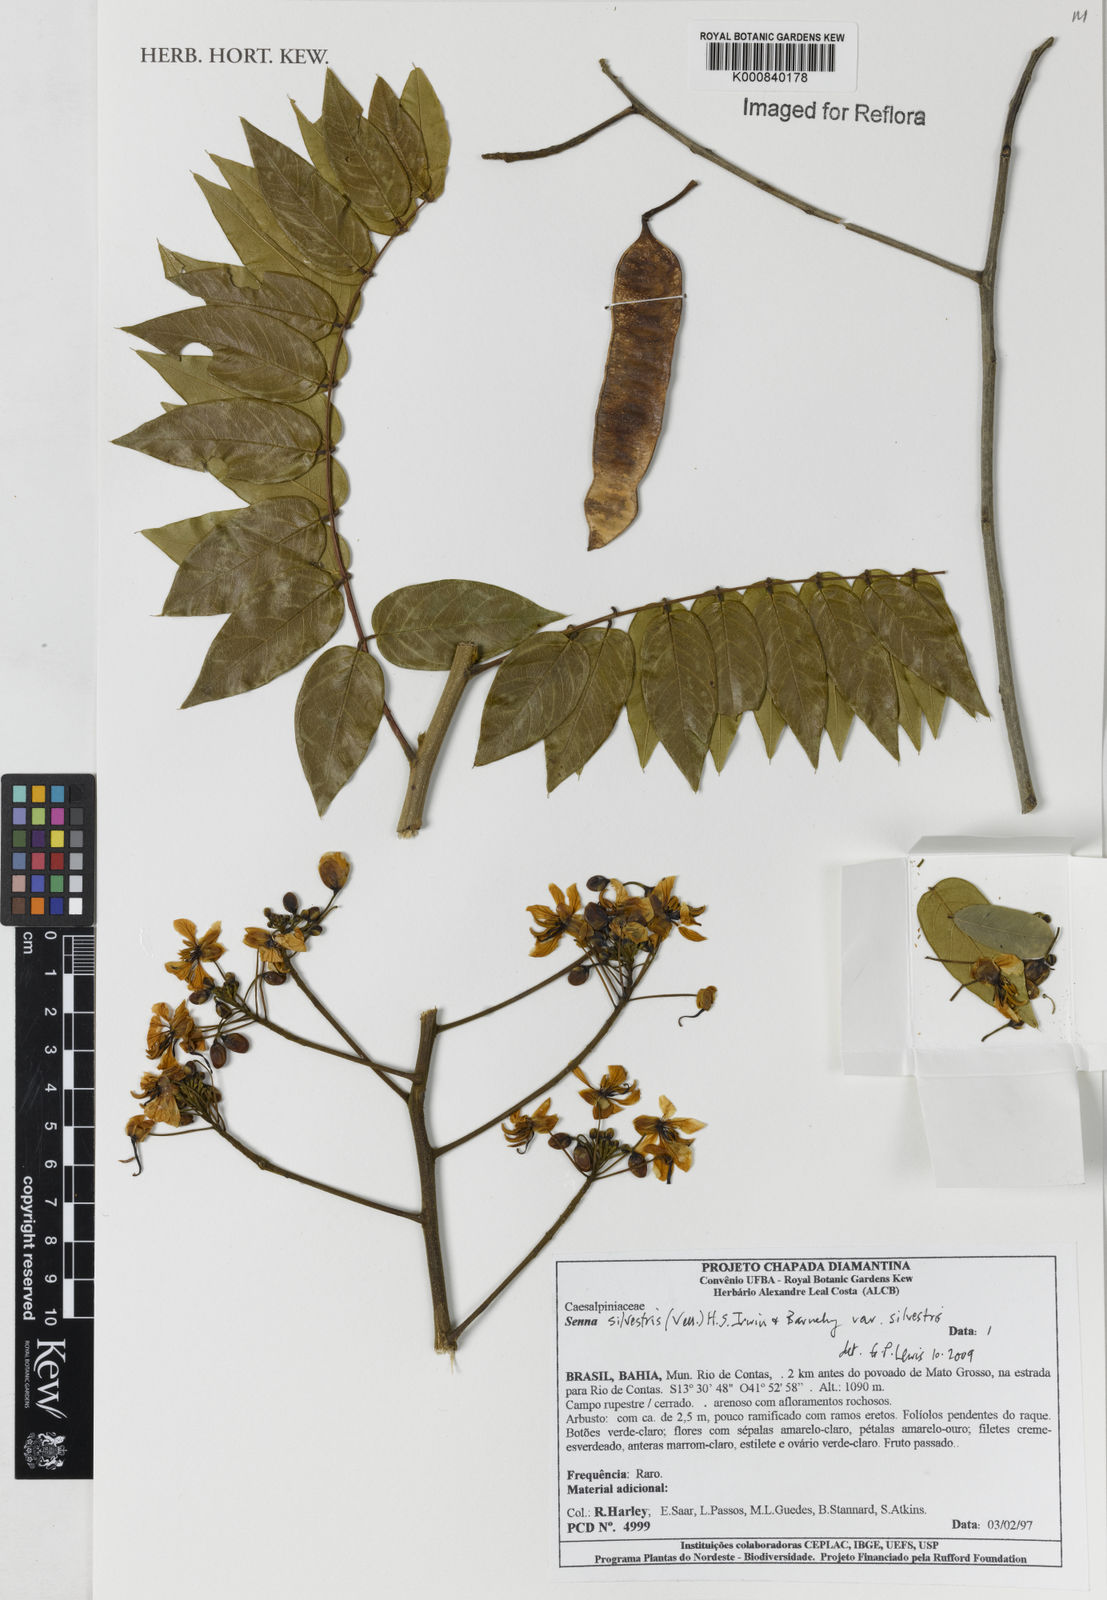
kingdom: Plantae
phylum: Tracheophyta
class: Magnoliopsida
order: Fabales
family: Fabaceae
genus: Senna
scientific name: Senna silvestris
